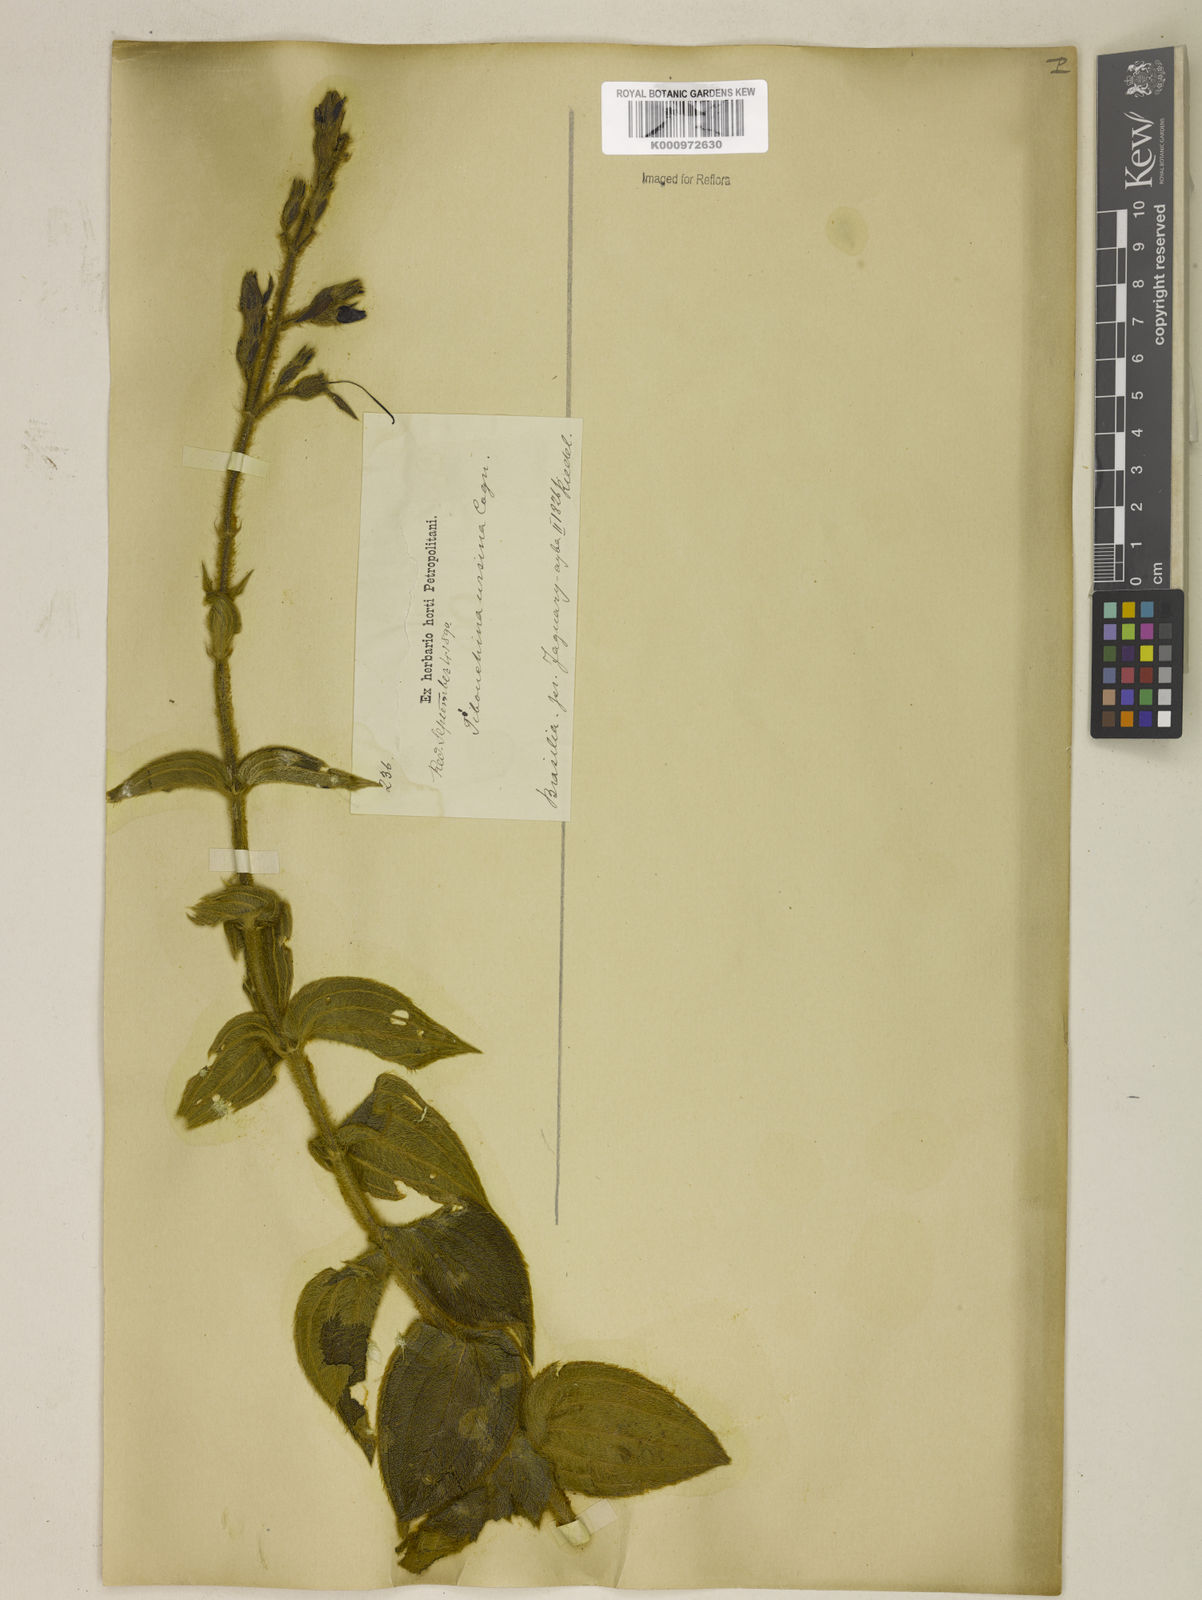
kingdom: Plantae
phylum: Tracheophyta
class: Magnoliopsida
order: Myrtales
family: Melastomataceae
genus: Pleroma
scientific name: Pleroma ursinum
